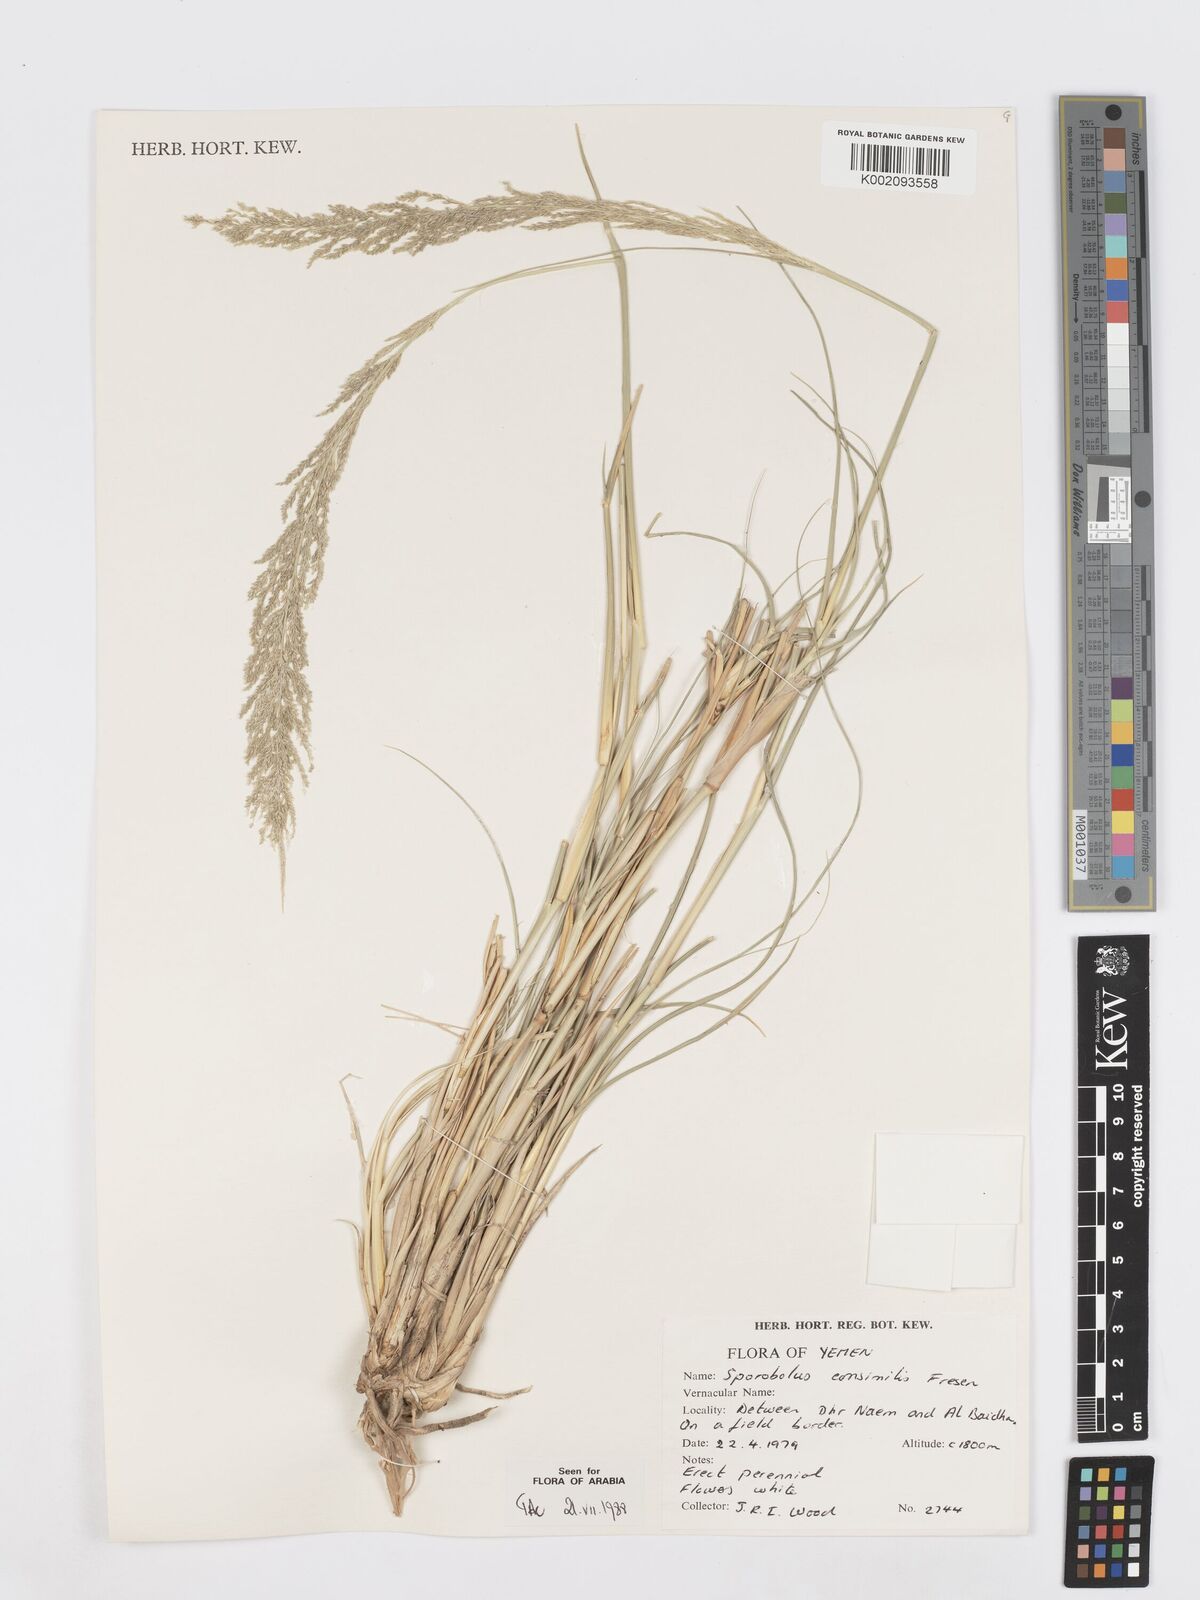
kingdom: Plantae
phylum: Tracheophyta
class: Liliopsida
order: Poales
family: Poaceae
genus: Sporobolus
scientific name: Sporobolus consimilis
